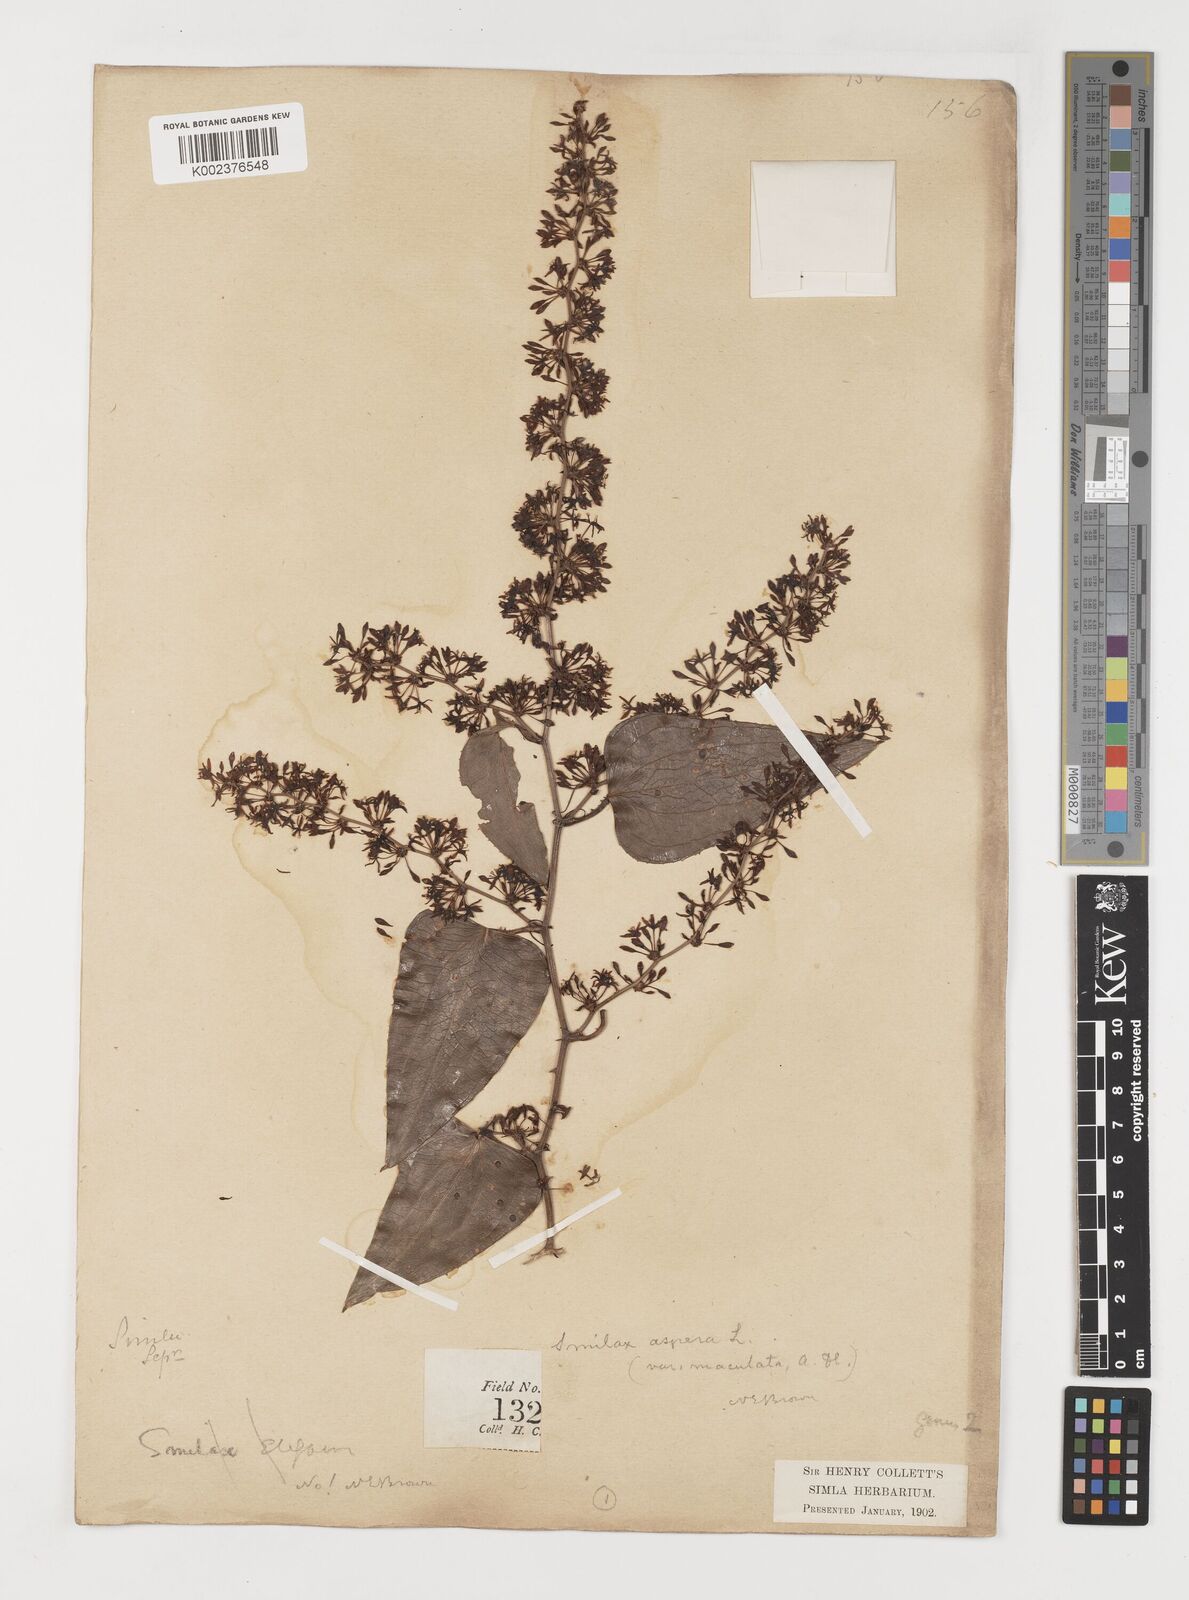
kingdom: Plantae
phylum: Tracheophyta
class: Liliopsida
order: Liliales
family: Smilacaceae
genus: Smilax
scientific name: Smilax aspera
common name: Common smilax
